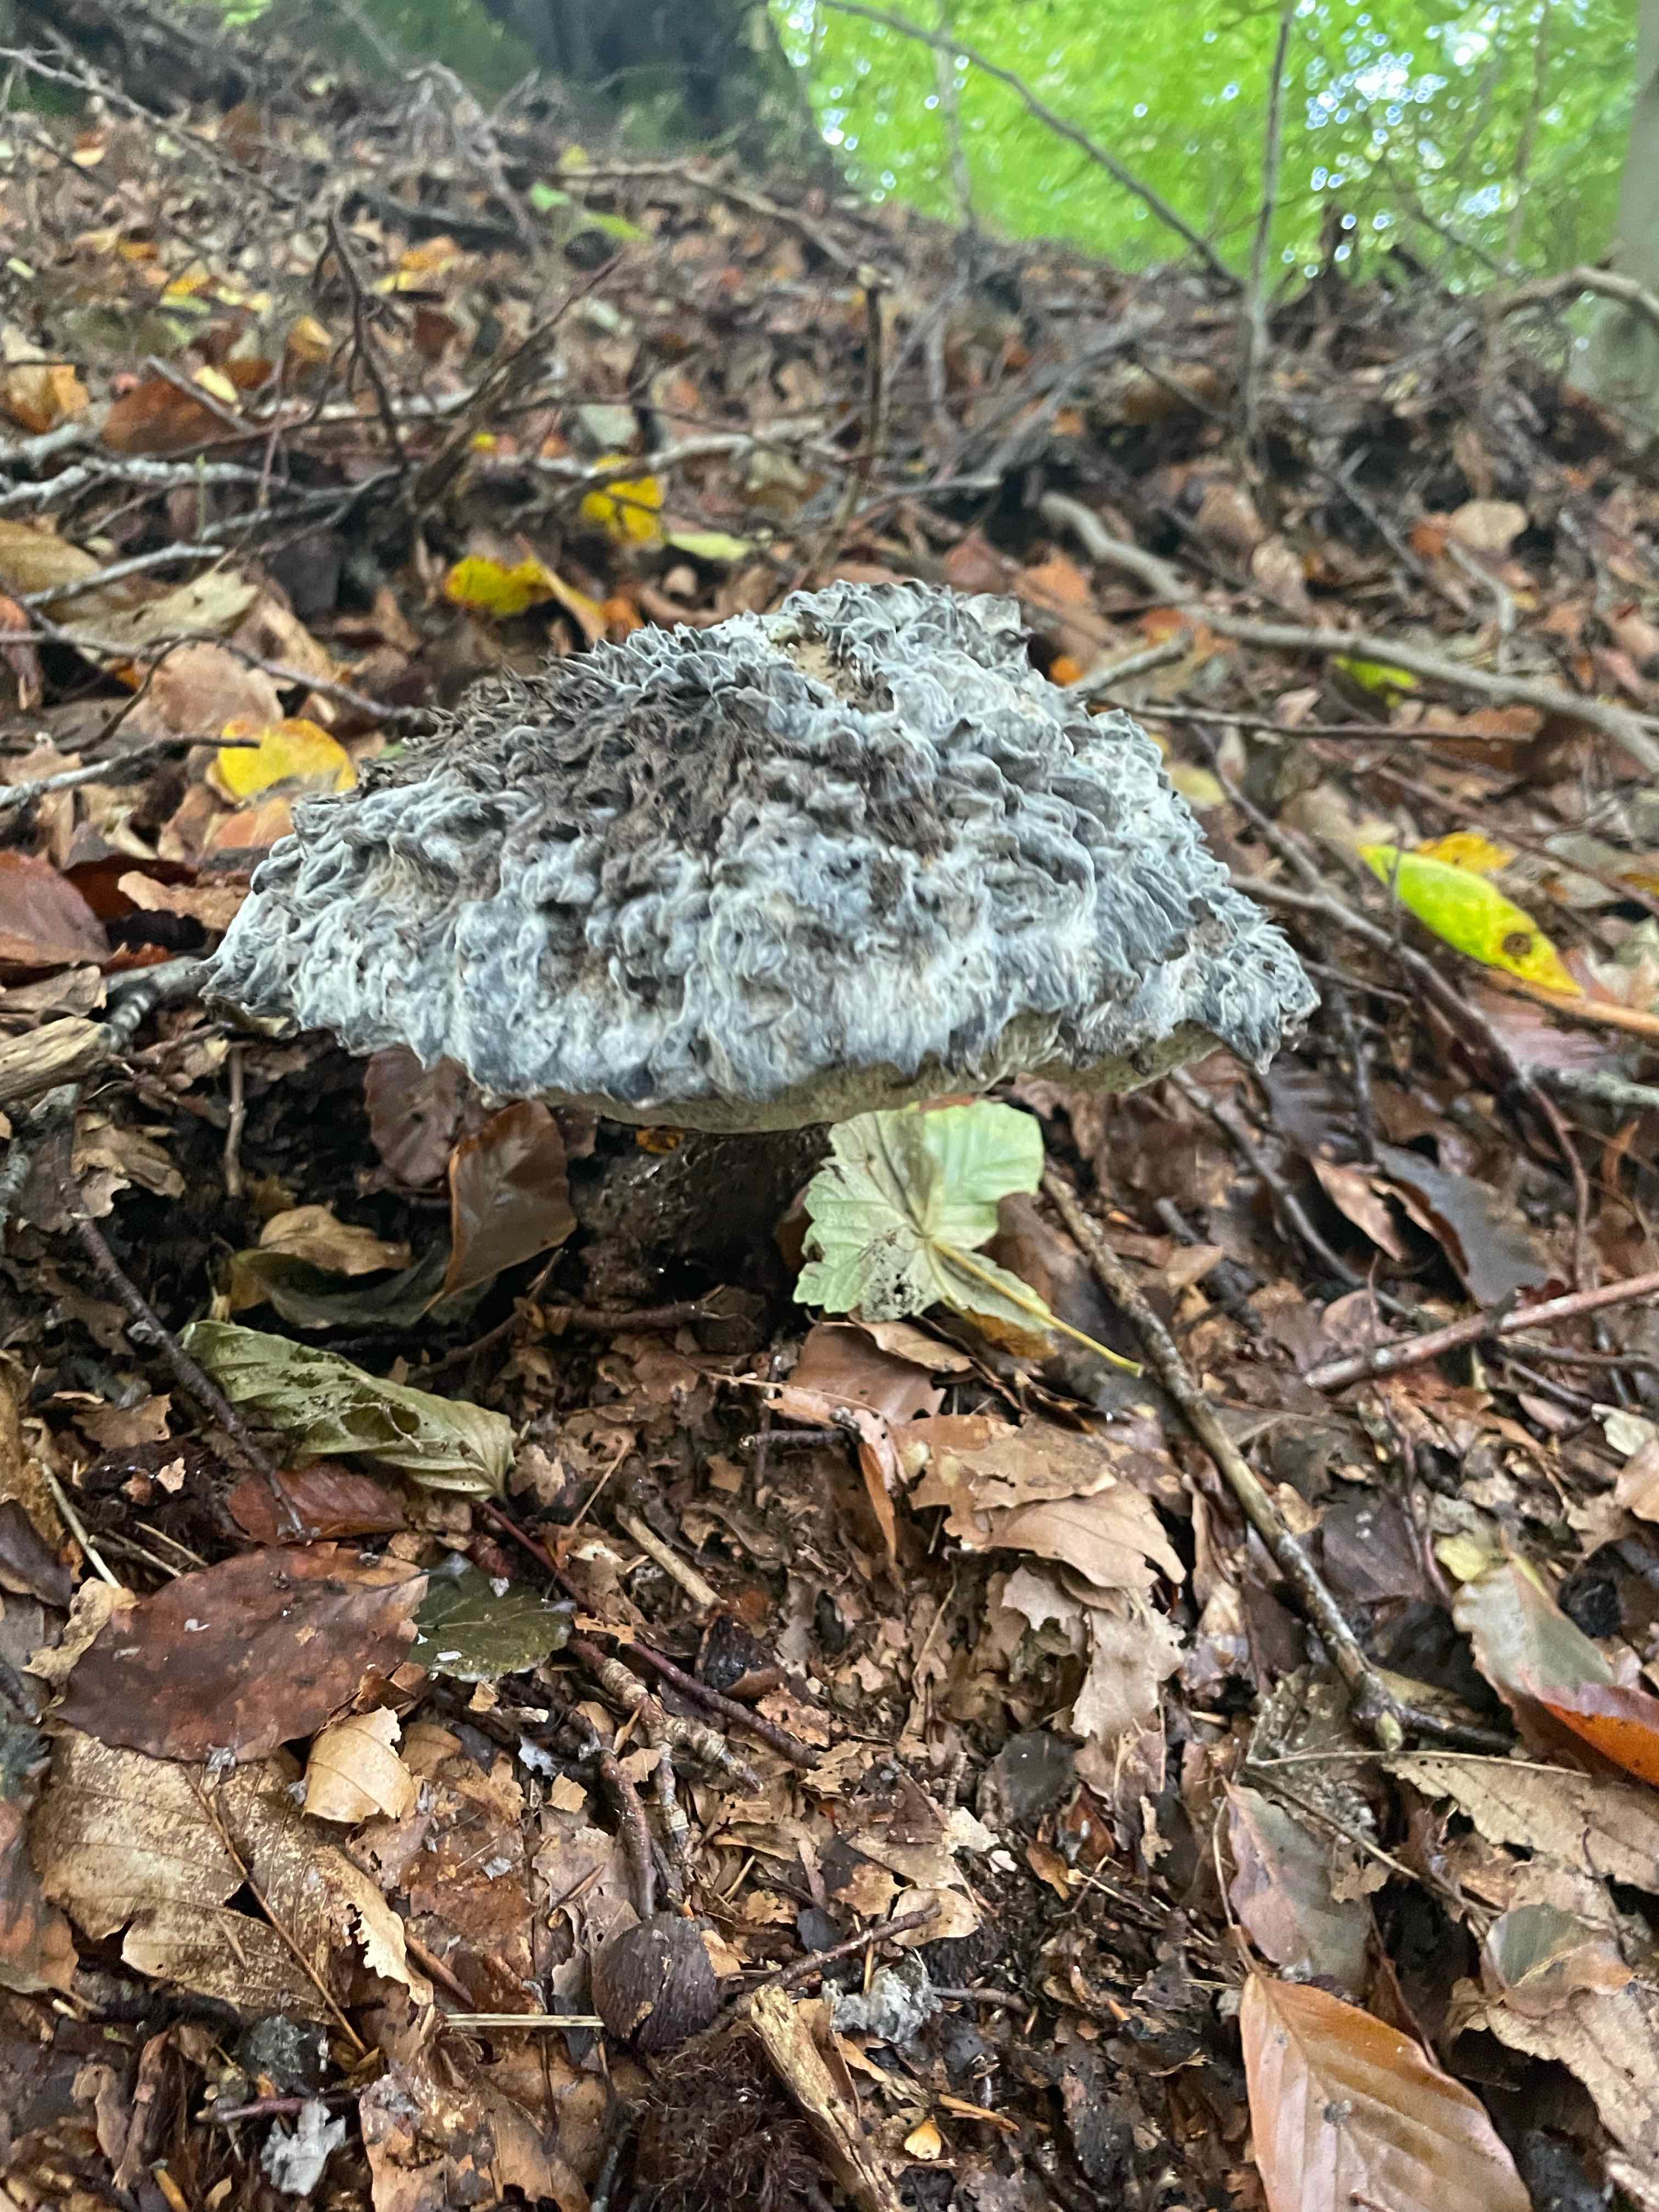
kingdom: Fungi
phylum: Basidiomycota
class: Agaricomycetes
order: Boletales
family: Boletaceae
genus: Strobilomyces
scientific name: Strobilomyces strobilaceus
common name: koglerørhat
